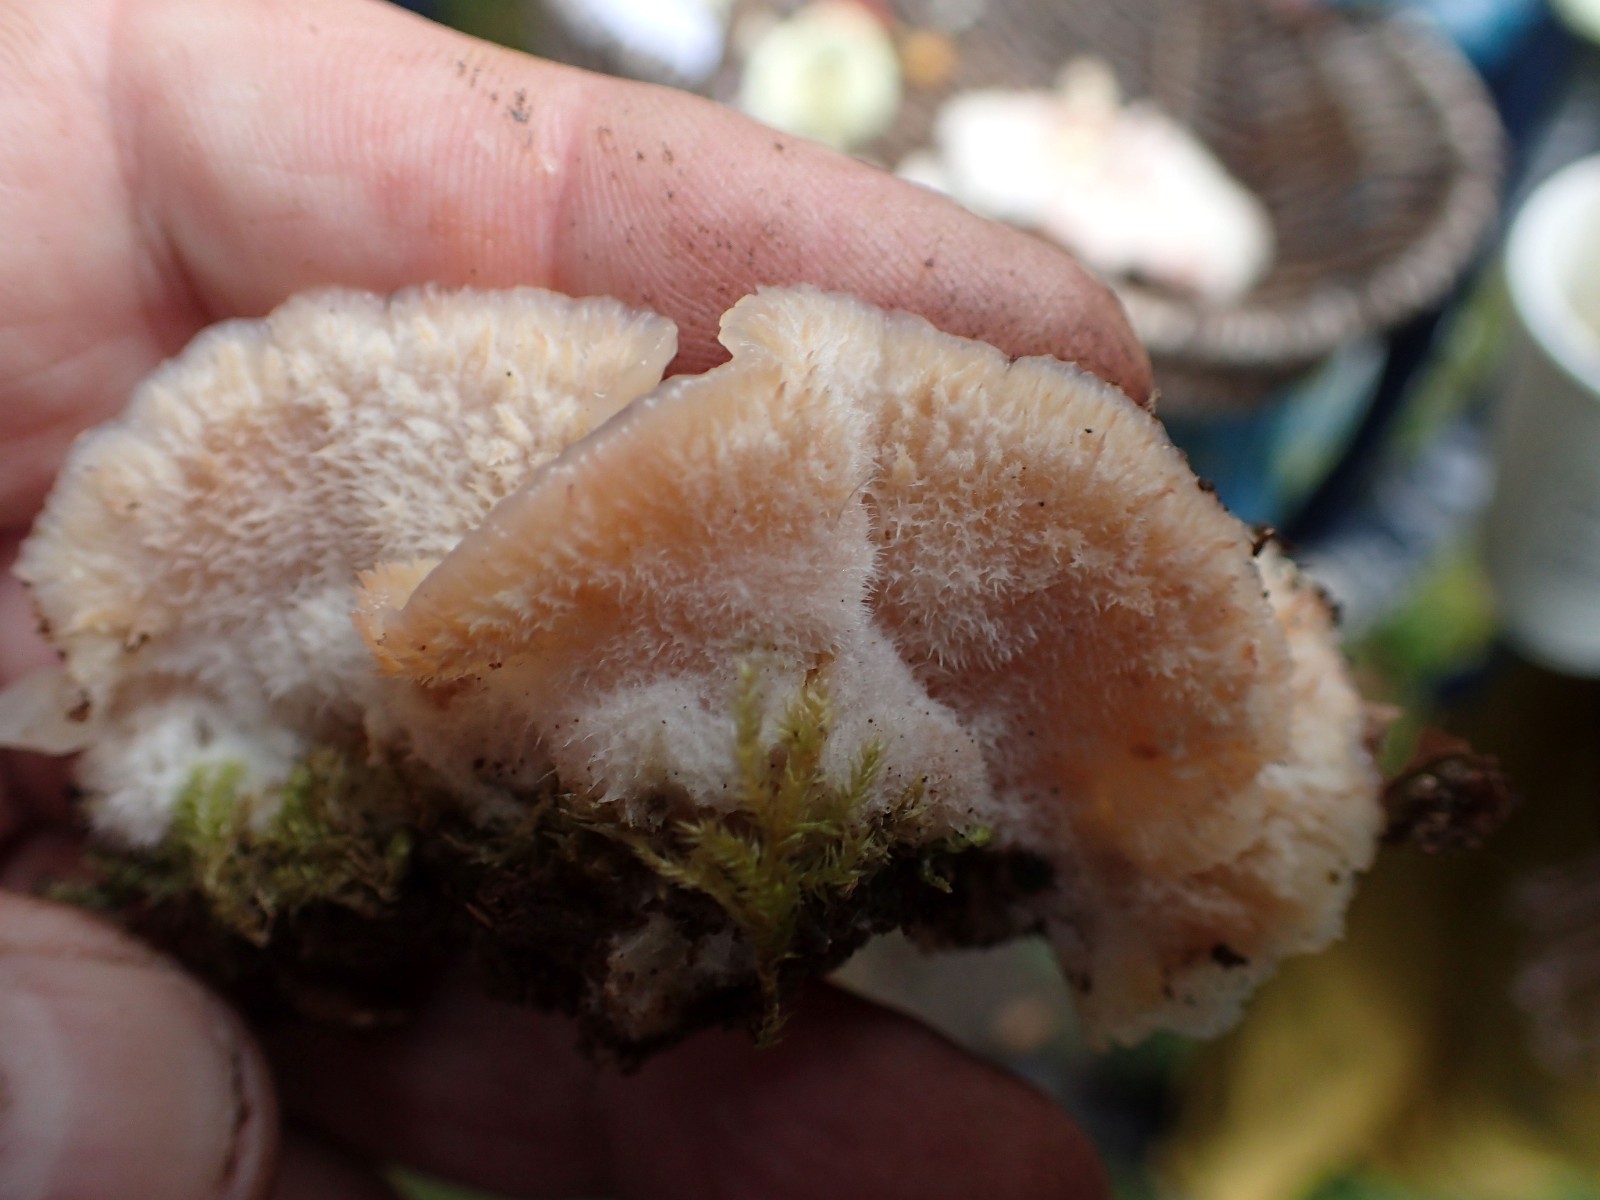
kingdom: Fungi
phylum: Basidiomycota
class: Agaricomycetes
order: Polyporales
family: Meruliaceae
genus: Phlebia
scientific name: Phlebia tremellosa
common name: bævrende åresvamp
